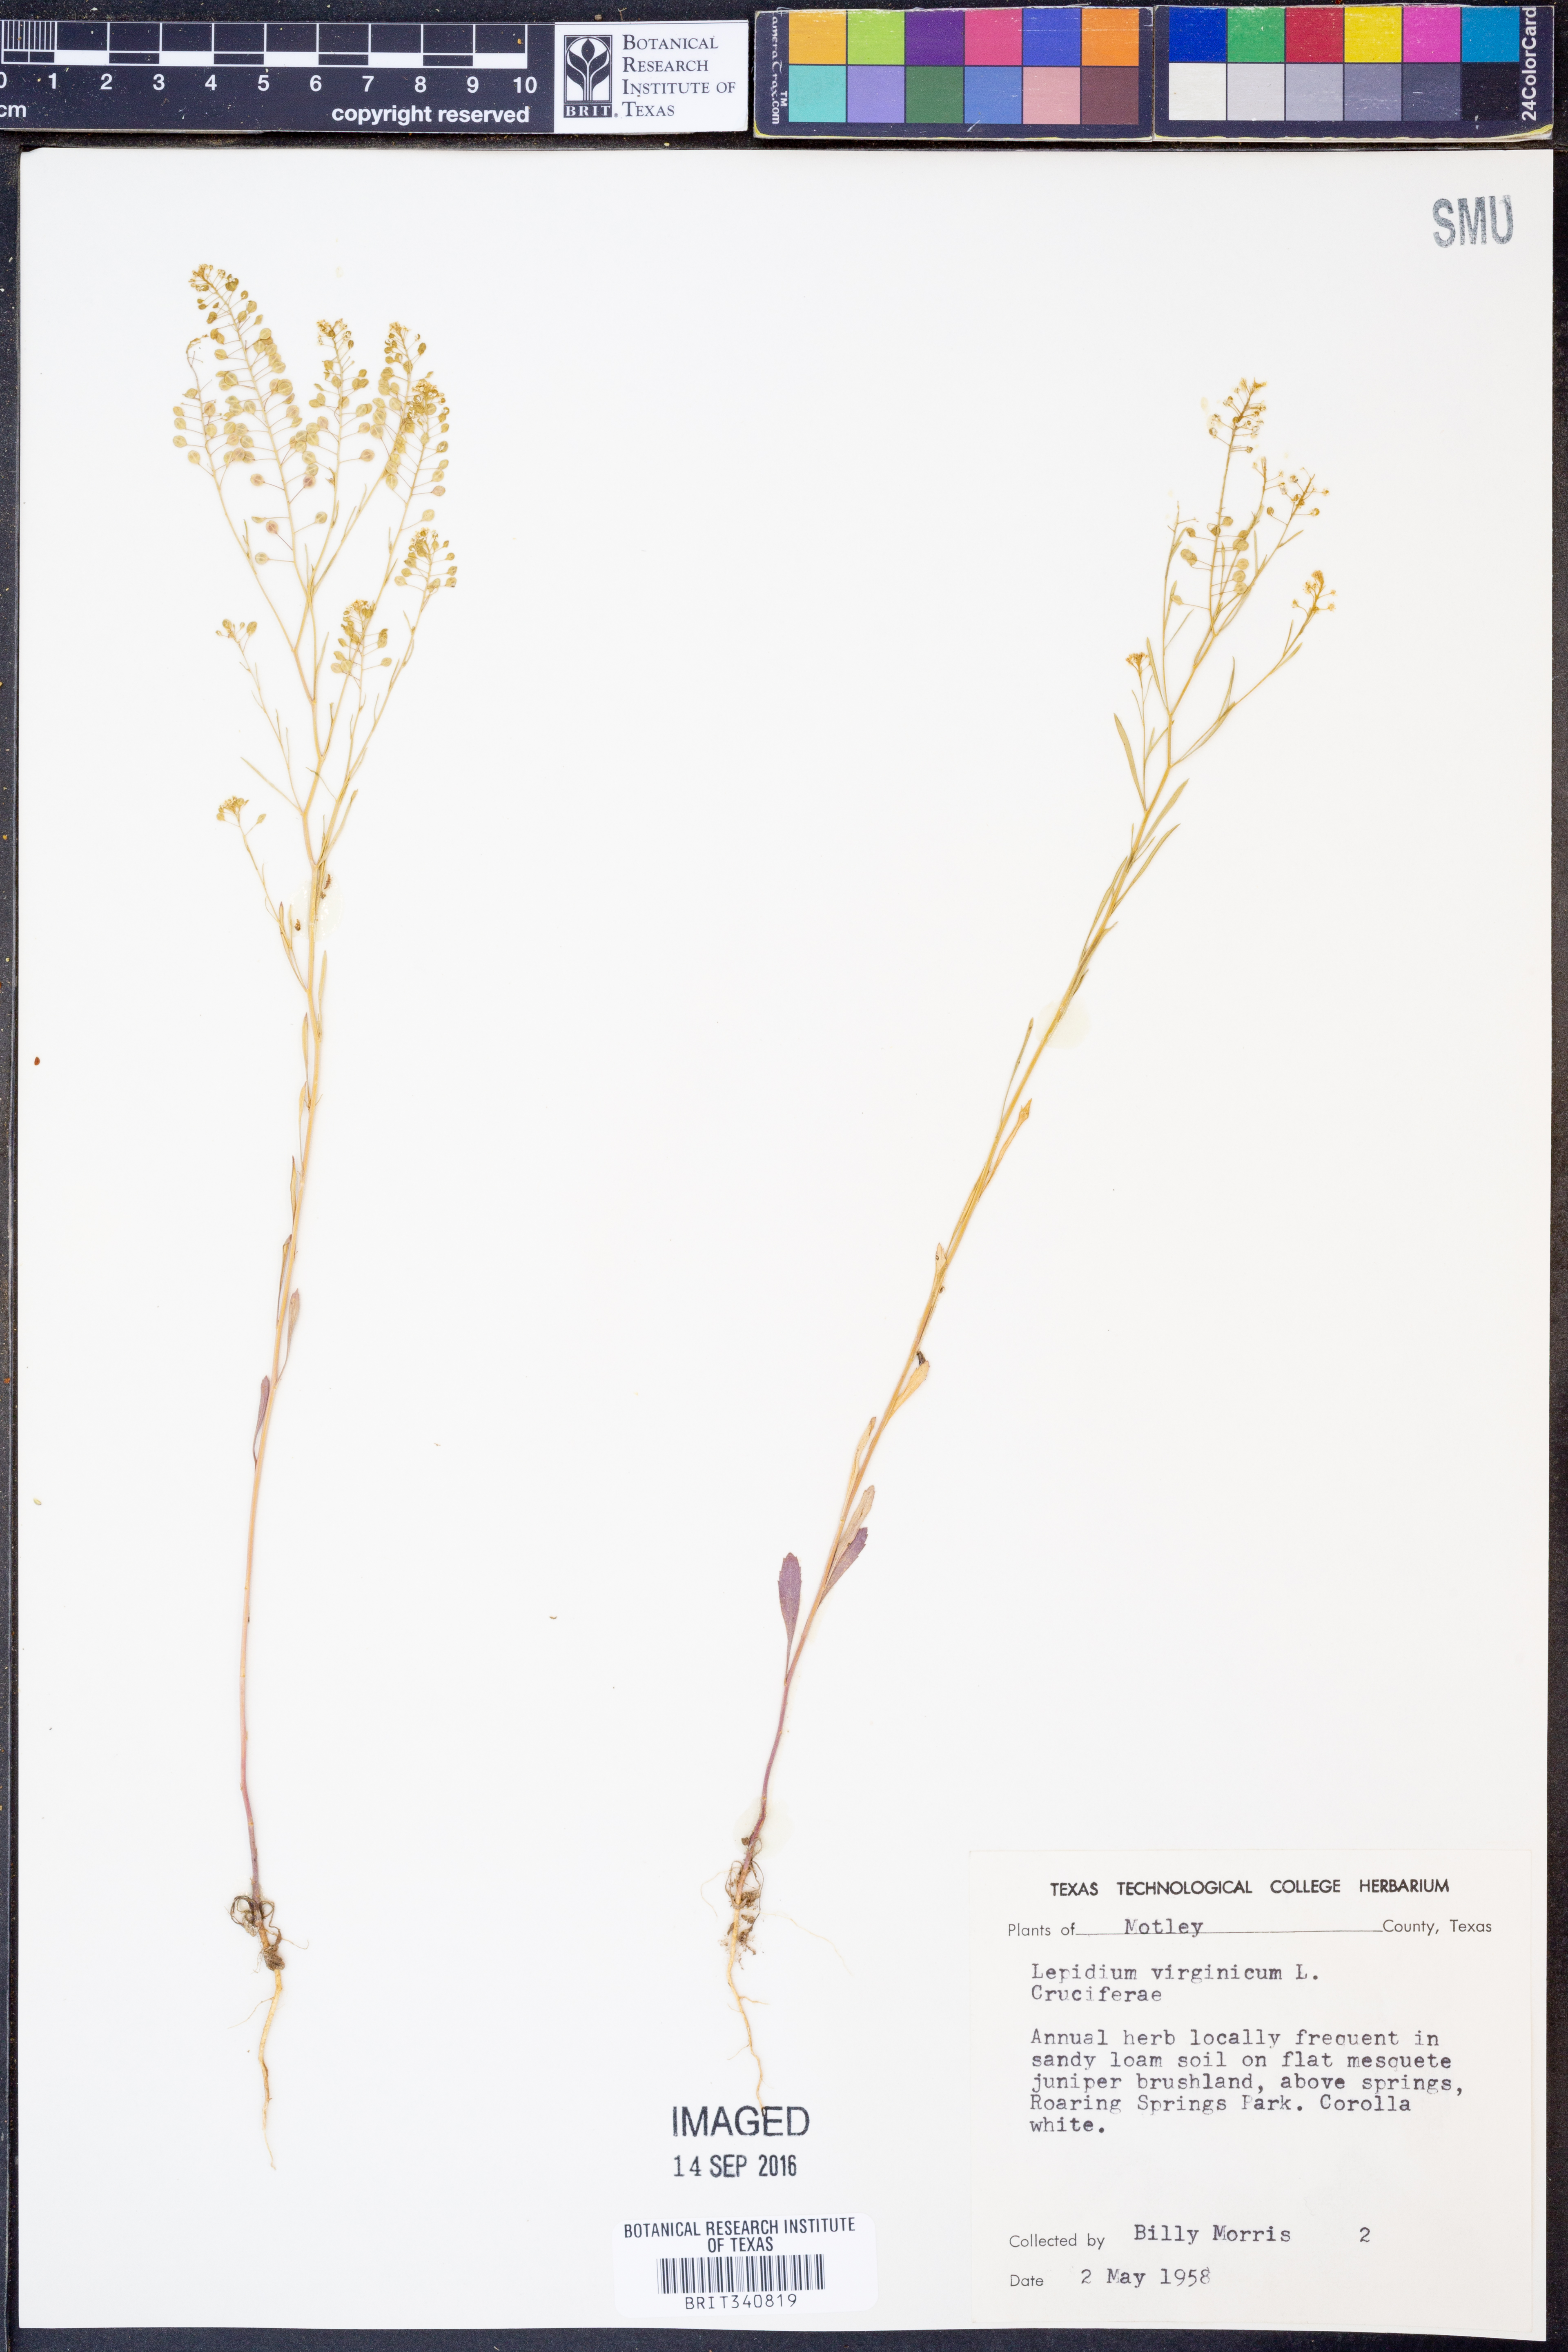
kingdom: Plantae
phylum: Tracheophyta
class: Magnoliopsida
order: Brassicales
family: Brassicaceae
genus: Lepidium
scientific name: Lepidium virginicum
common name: Least pepperwort
